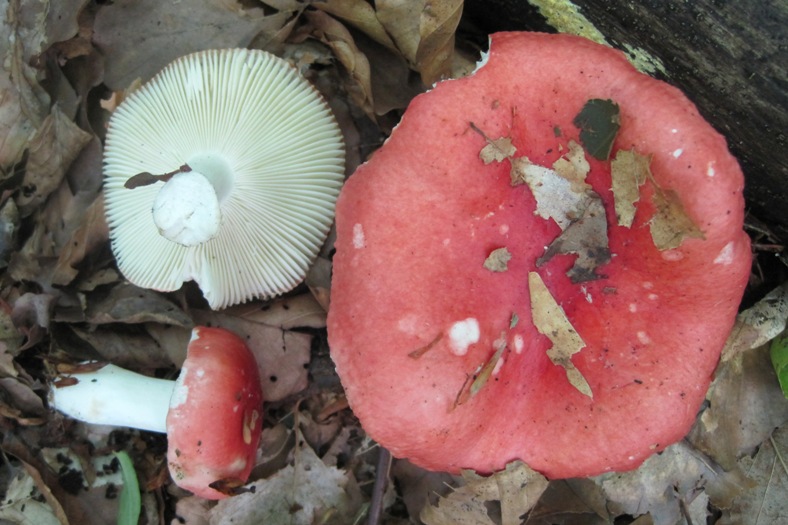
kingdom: Fungi
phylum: Basidiomycota
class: Agaricomycetes
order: Russulales
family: Russulaceae
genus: Russula
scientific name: Russula nobilis
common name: lille gift-skørhat
